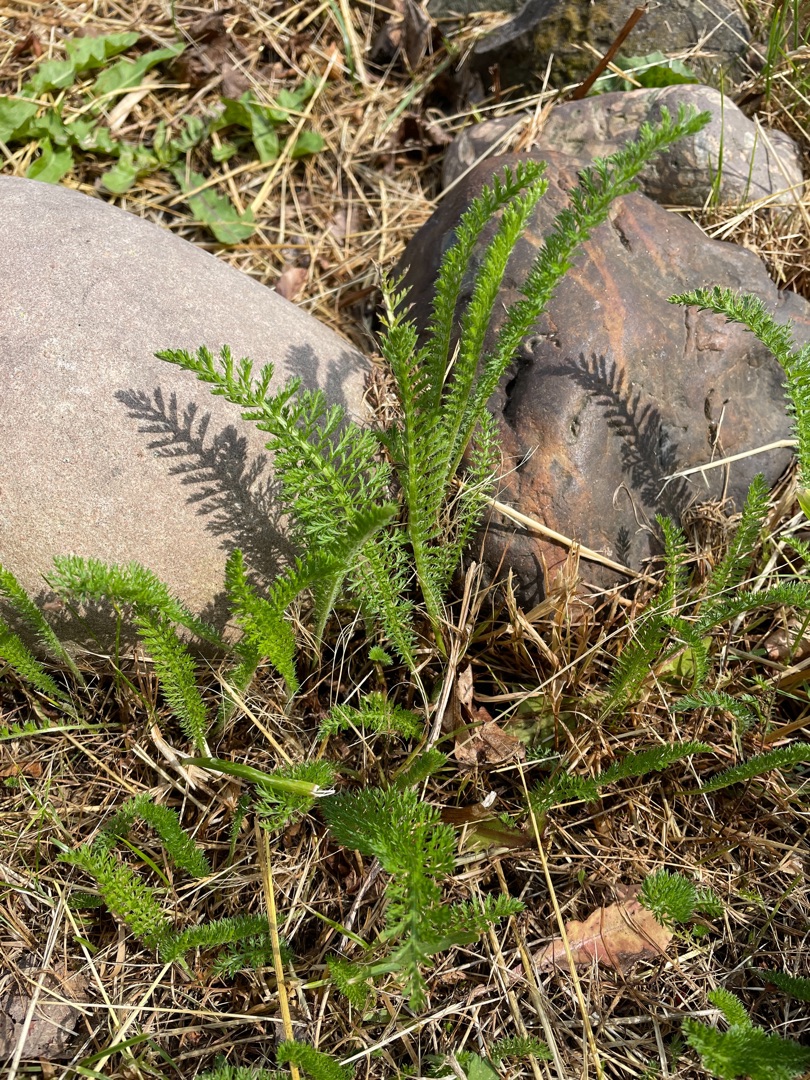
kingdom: Plantae
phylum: Tracheophyta
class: Magnoliopsida
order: Asterales
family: Asteraceae
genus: Achillea
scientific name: Achillea millefolium
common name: Almindelig røllike
